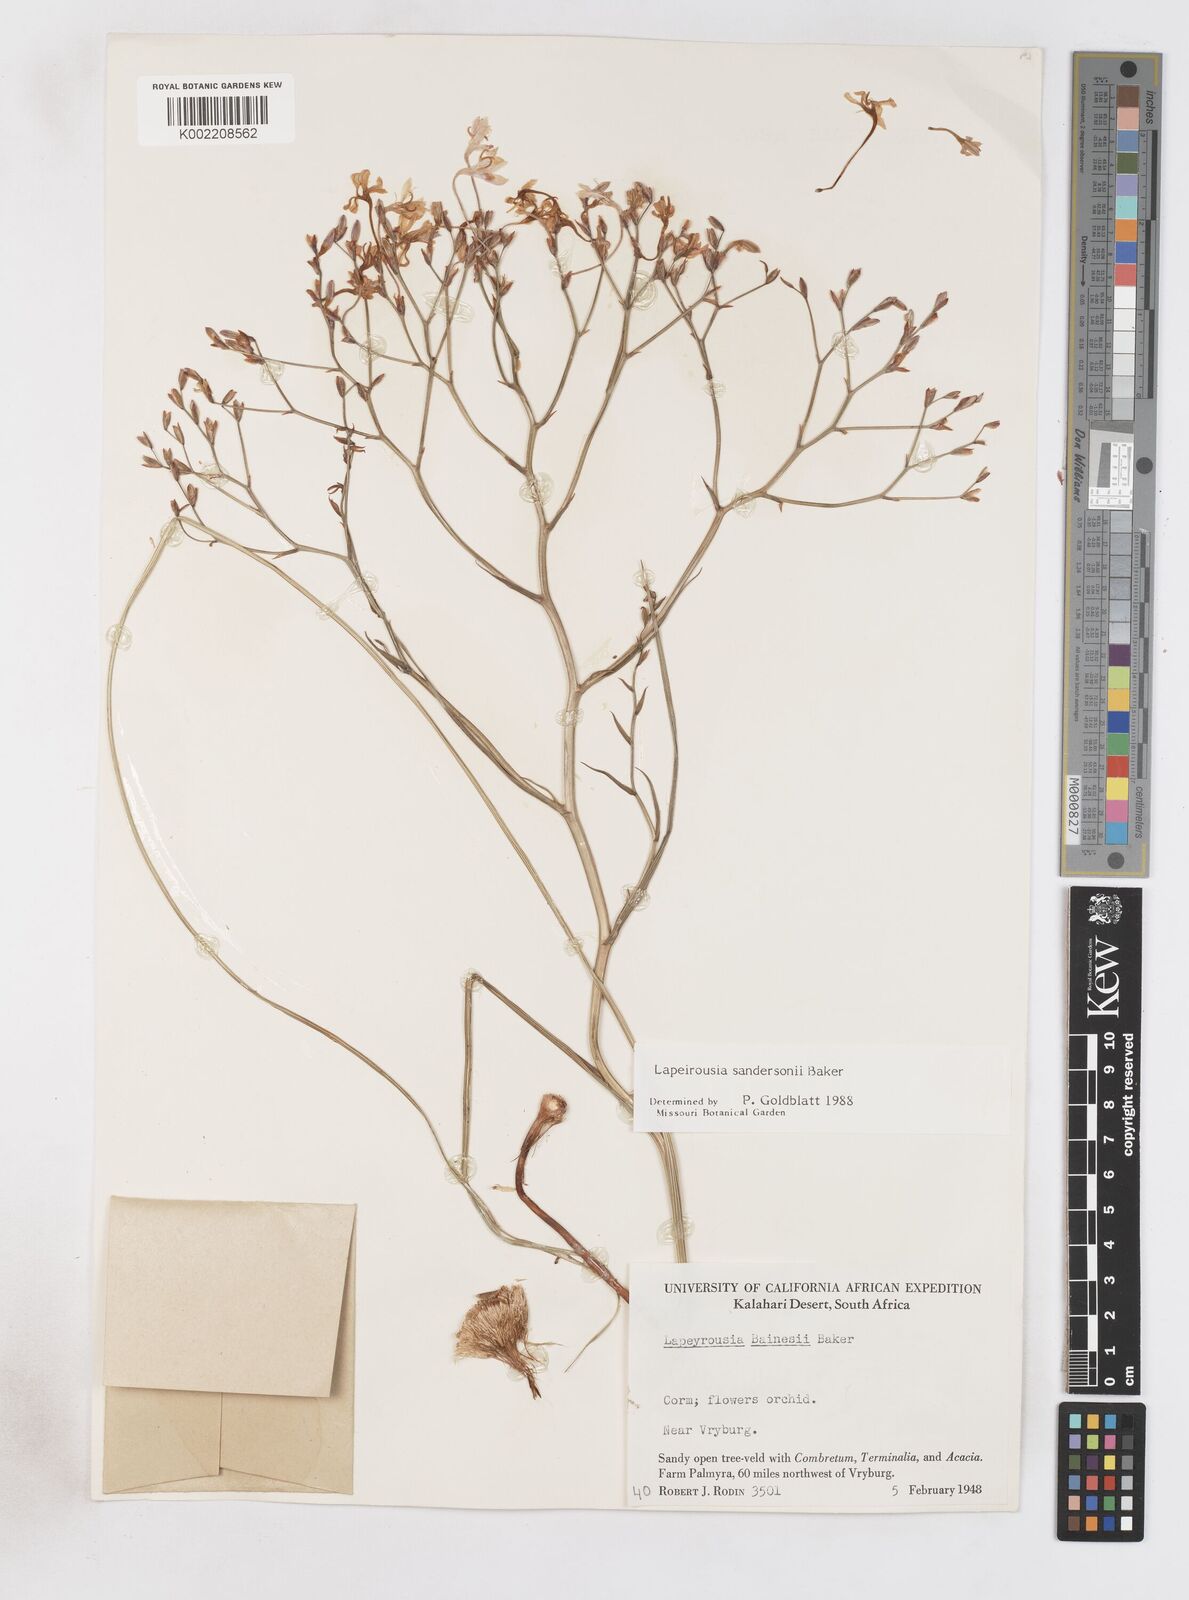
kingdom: Plantae
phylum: Tracheophyta
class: Liliopsida
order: Asparagales
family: Iridaceae
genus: Afrosolen
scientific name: Afrosolen sandersonii
